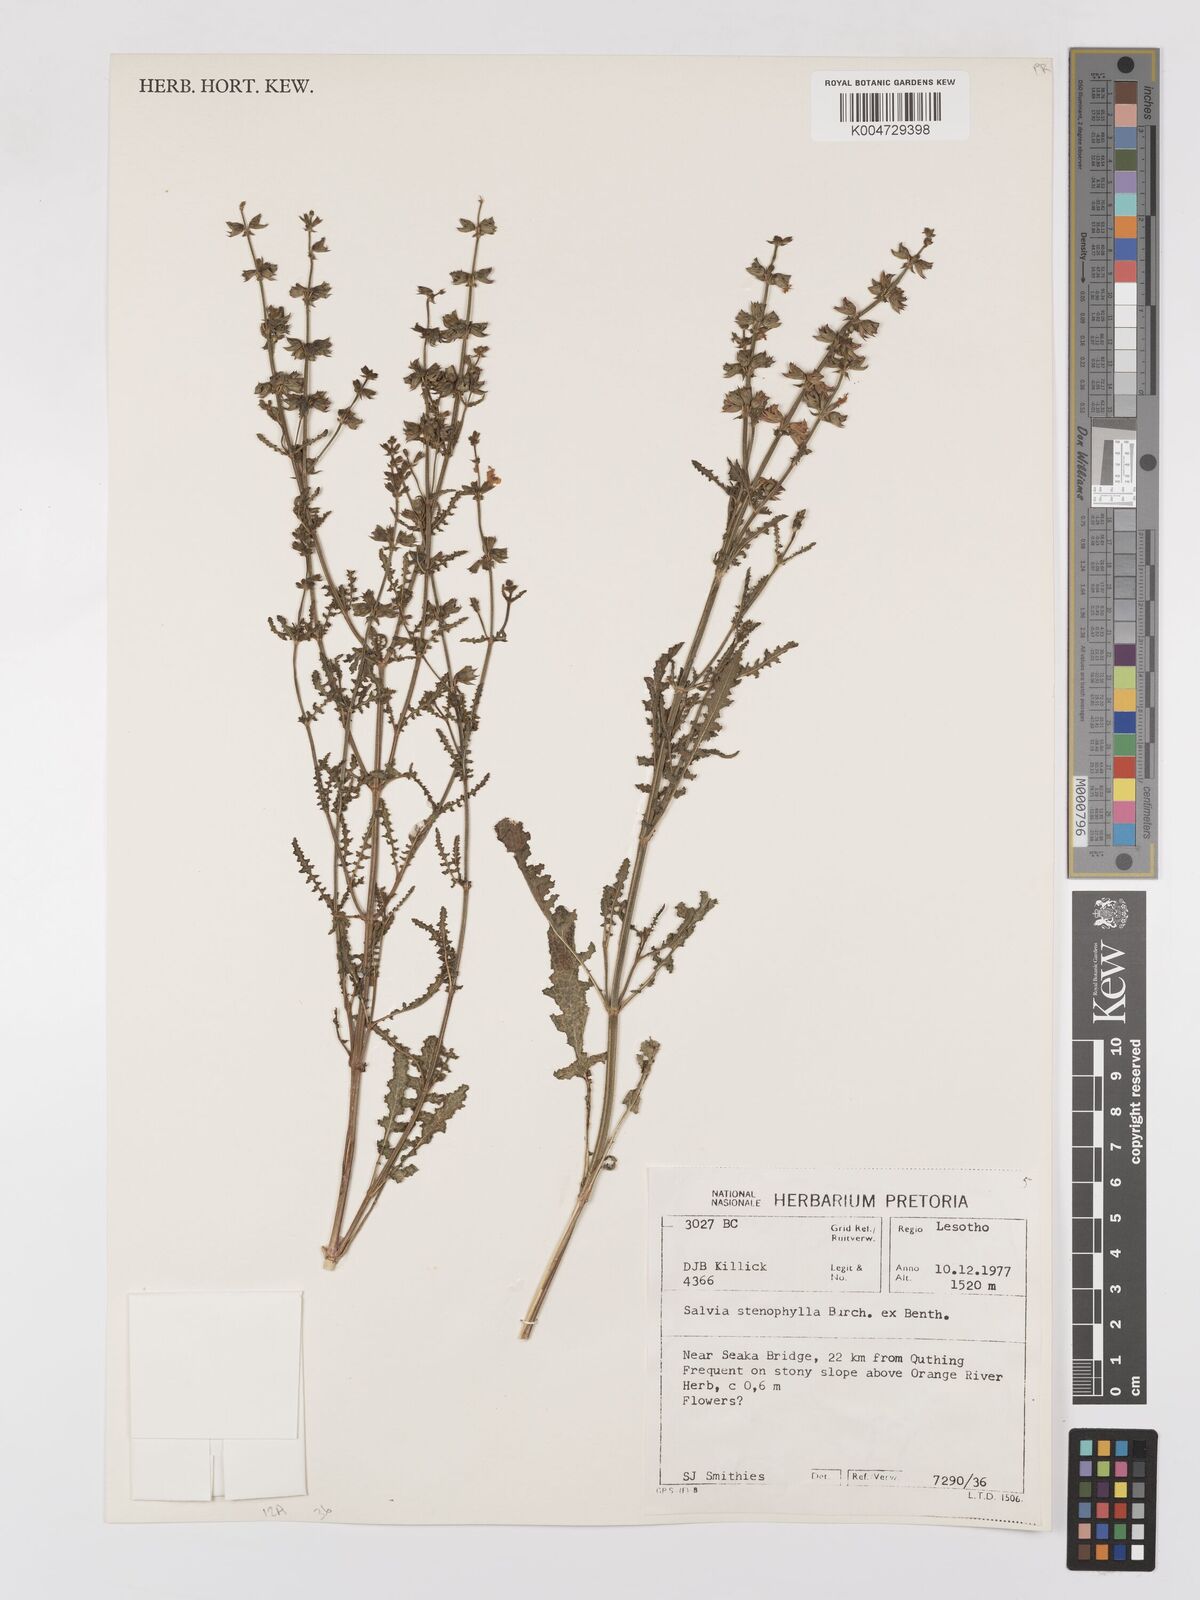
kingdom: Plantae
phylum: Tracheophyta
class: Magnoliopsida
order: Lamiales
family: Lamiaceae
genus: Salvia
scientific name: Salvia stenophylla
